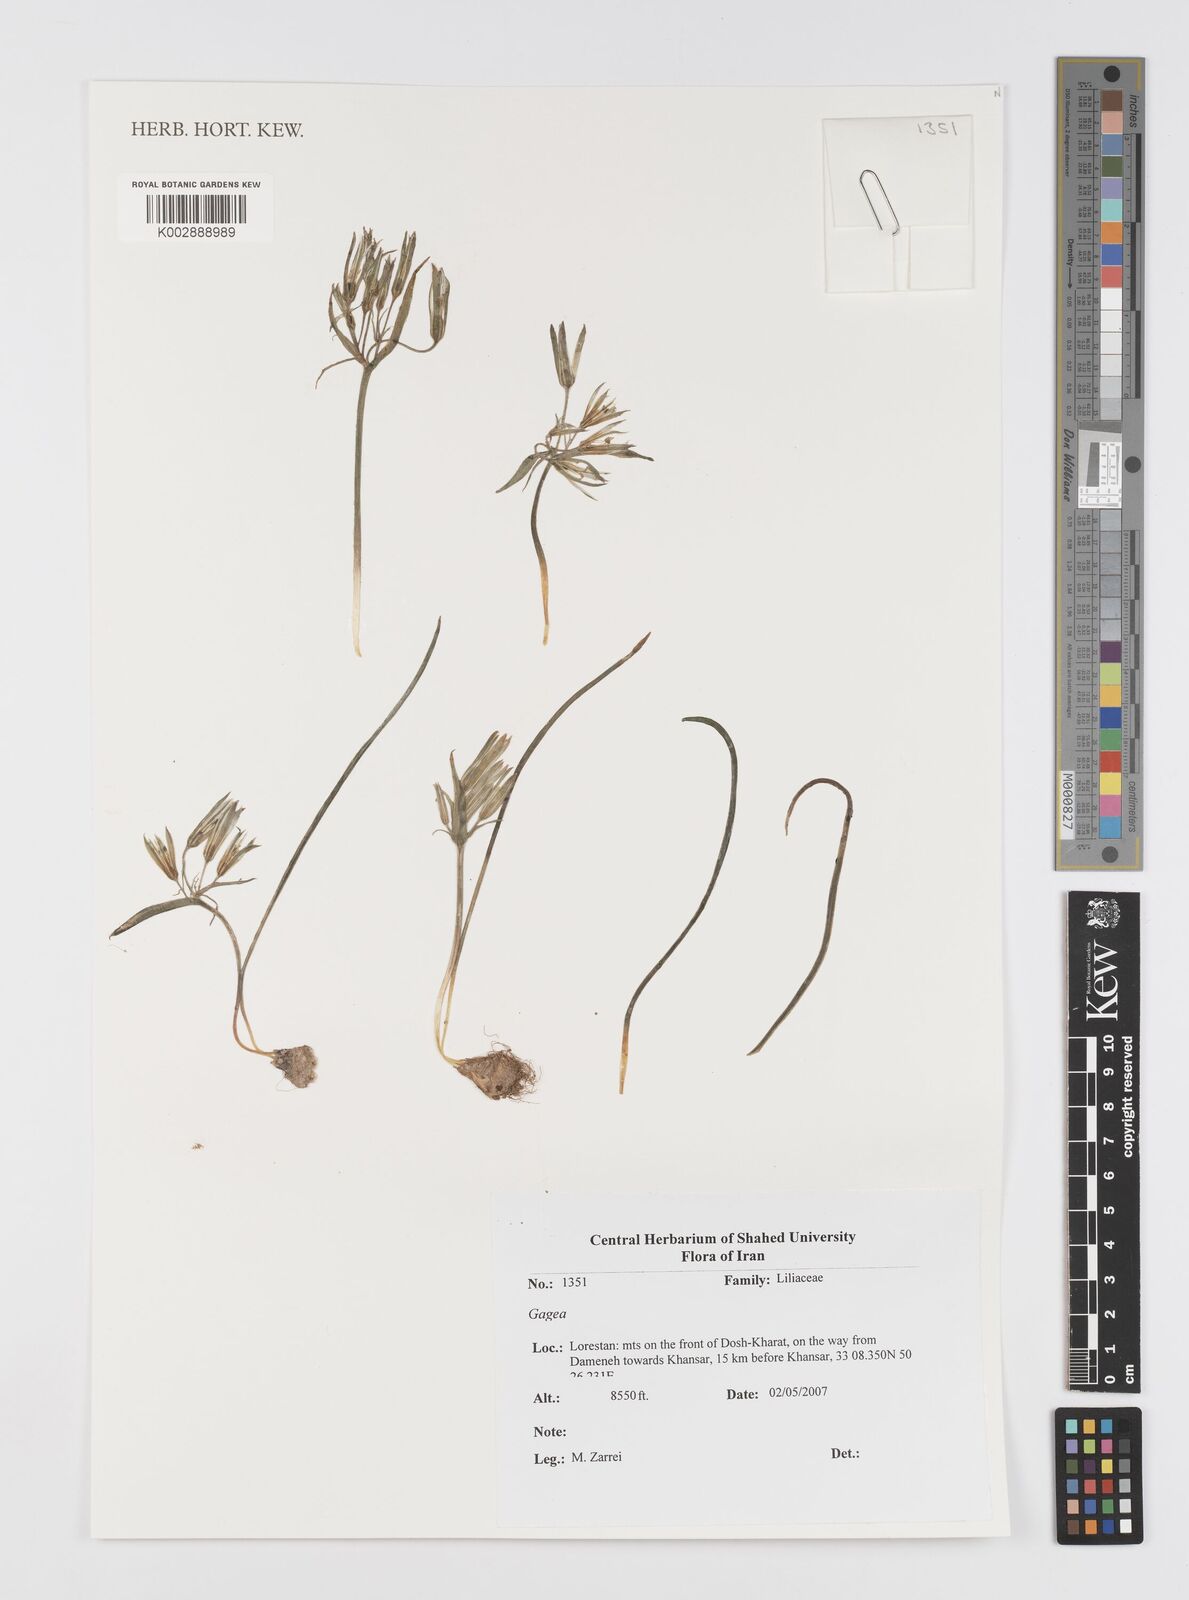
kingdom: Plantae
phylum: Tracheophyta
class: Liliopsida
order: Liliales
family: Liliaceae
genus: Gagea
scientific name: Gagea
